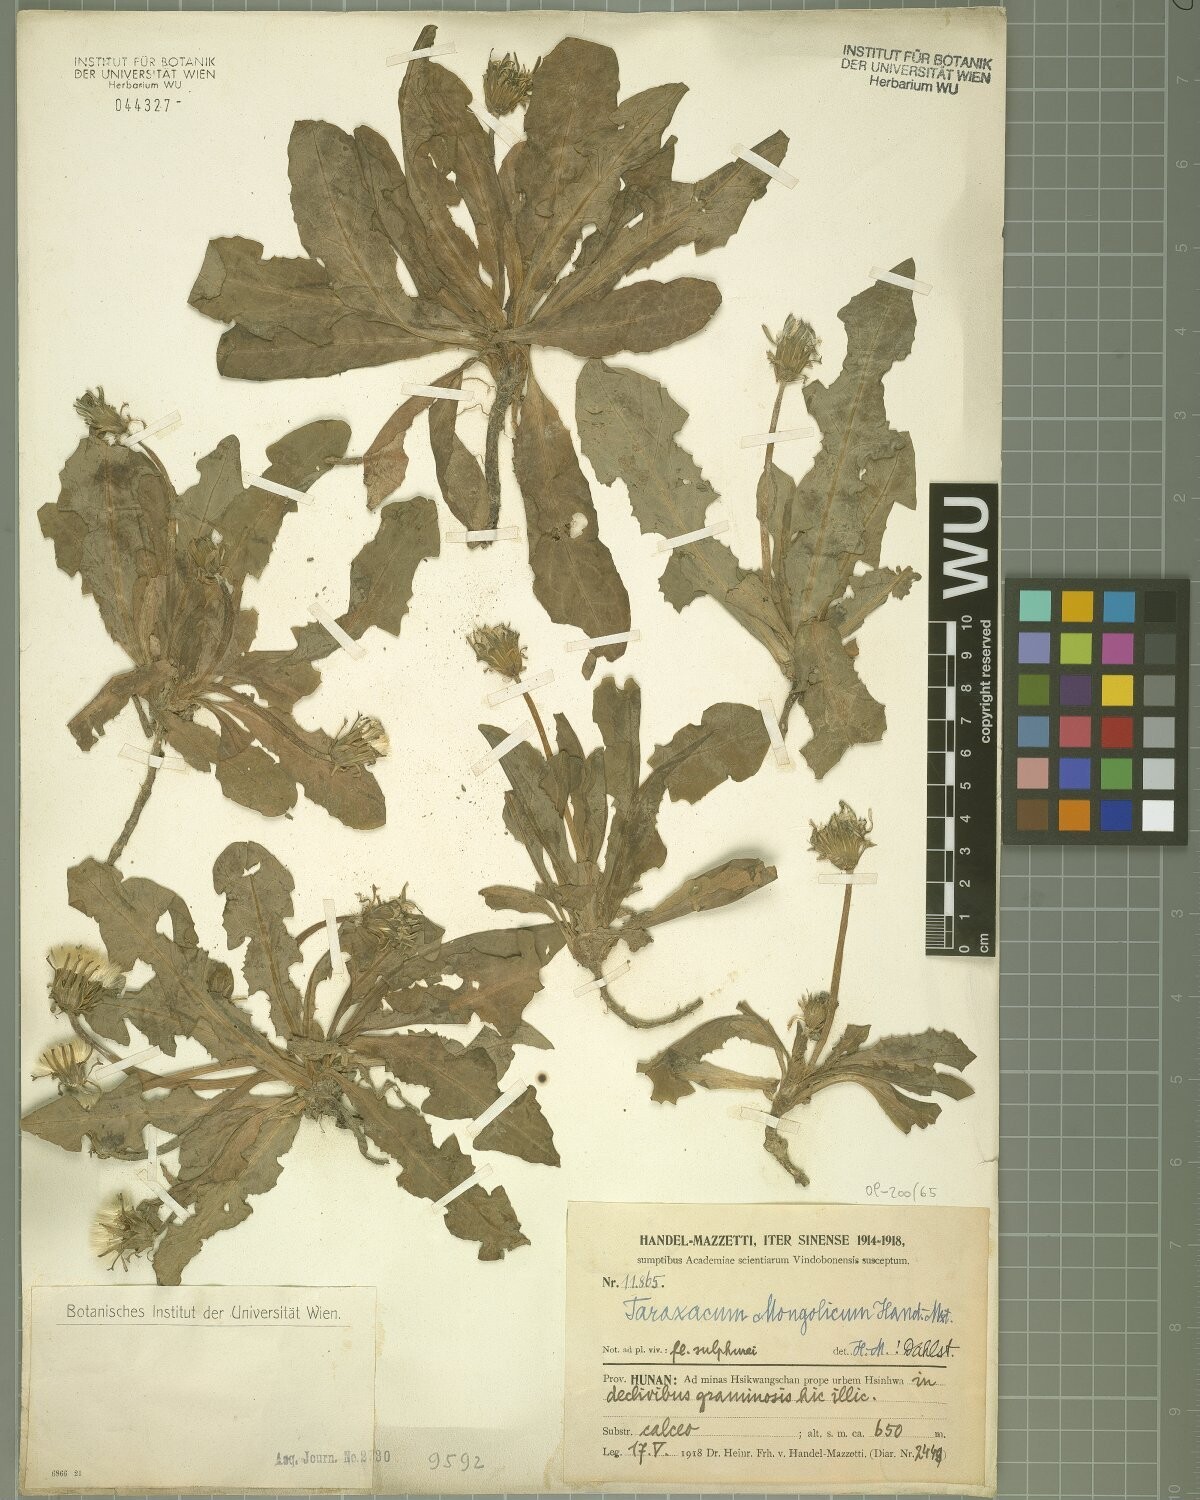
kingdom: Plantae
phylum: Tracheophyta
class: Magnoliopsida
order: Asterales
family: Asteraceae
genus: Taraxacum
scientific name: Taraxacum mongolicum
